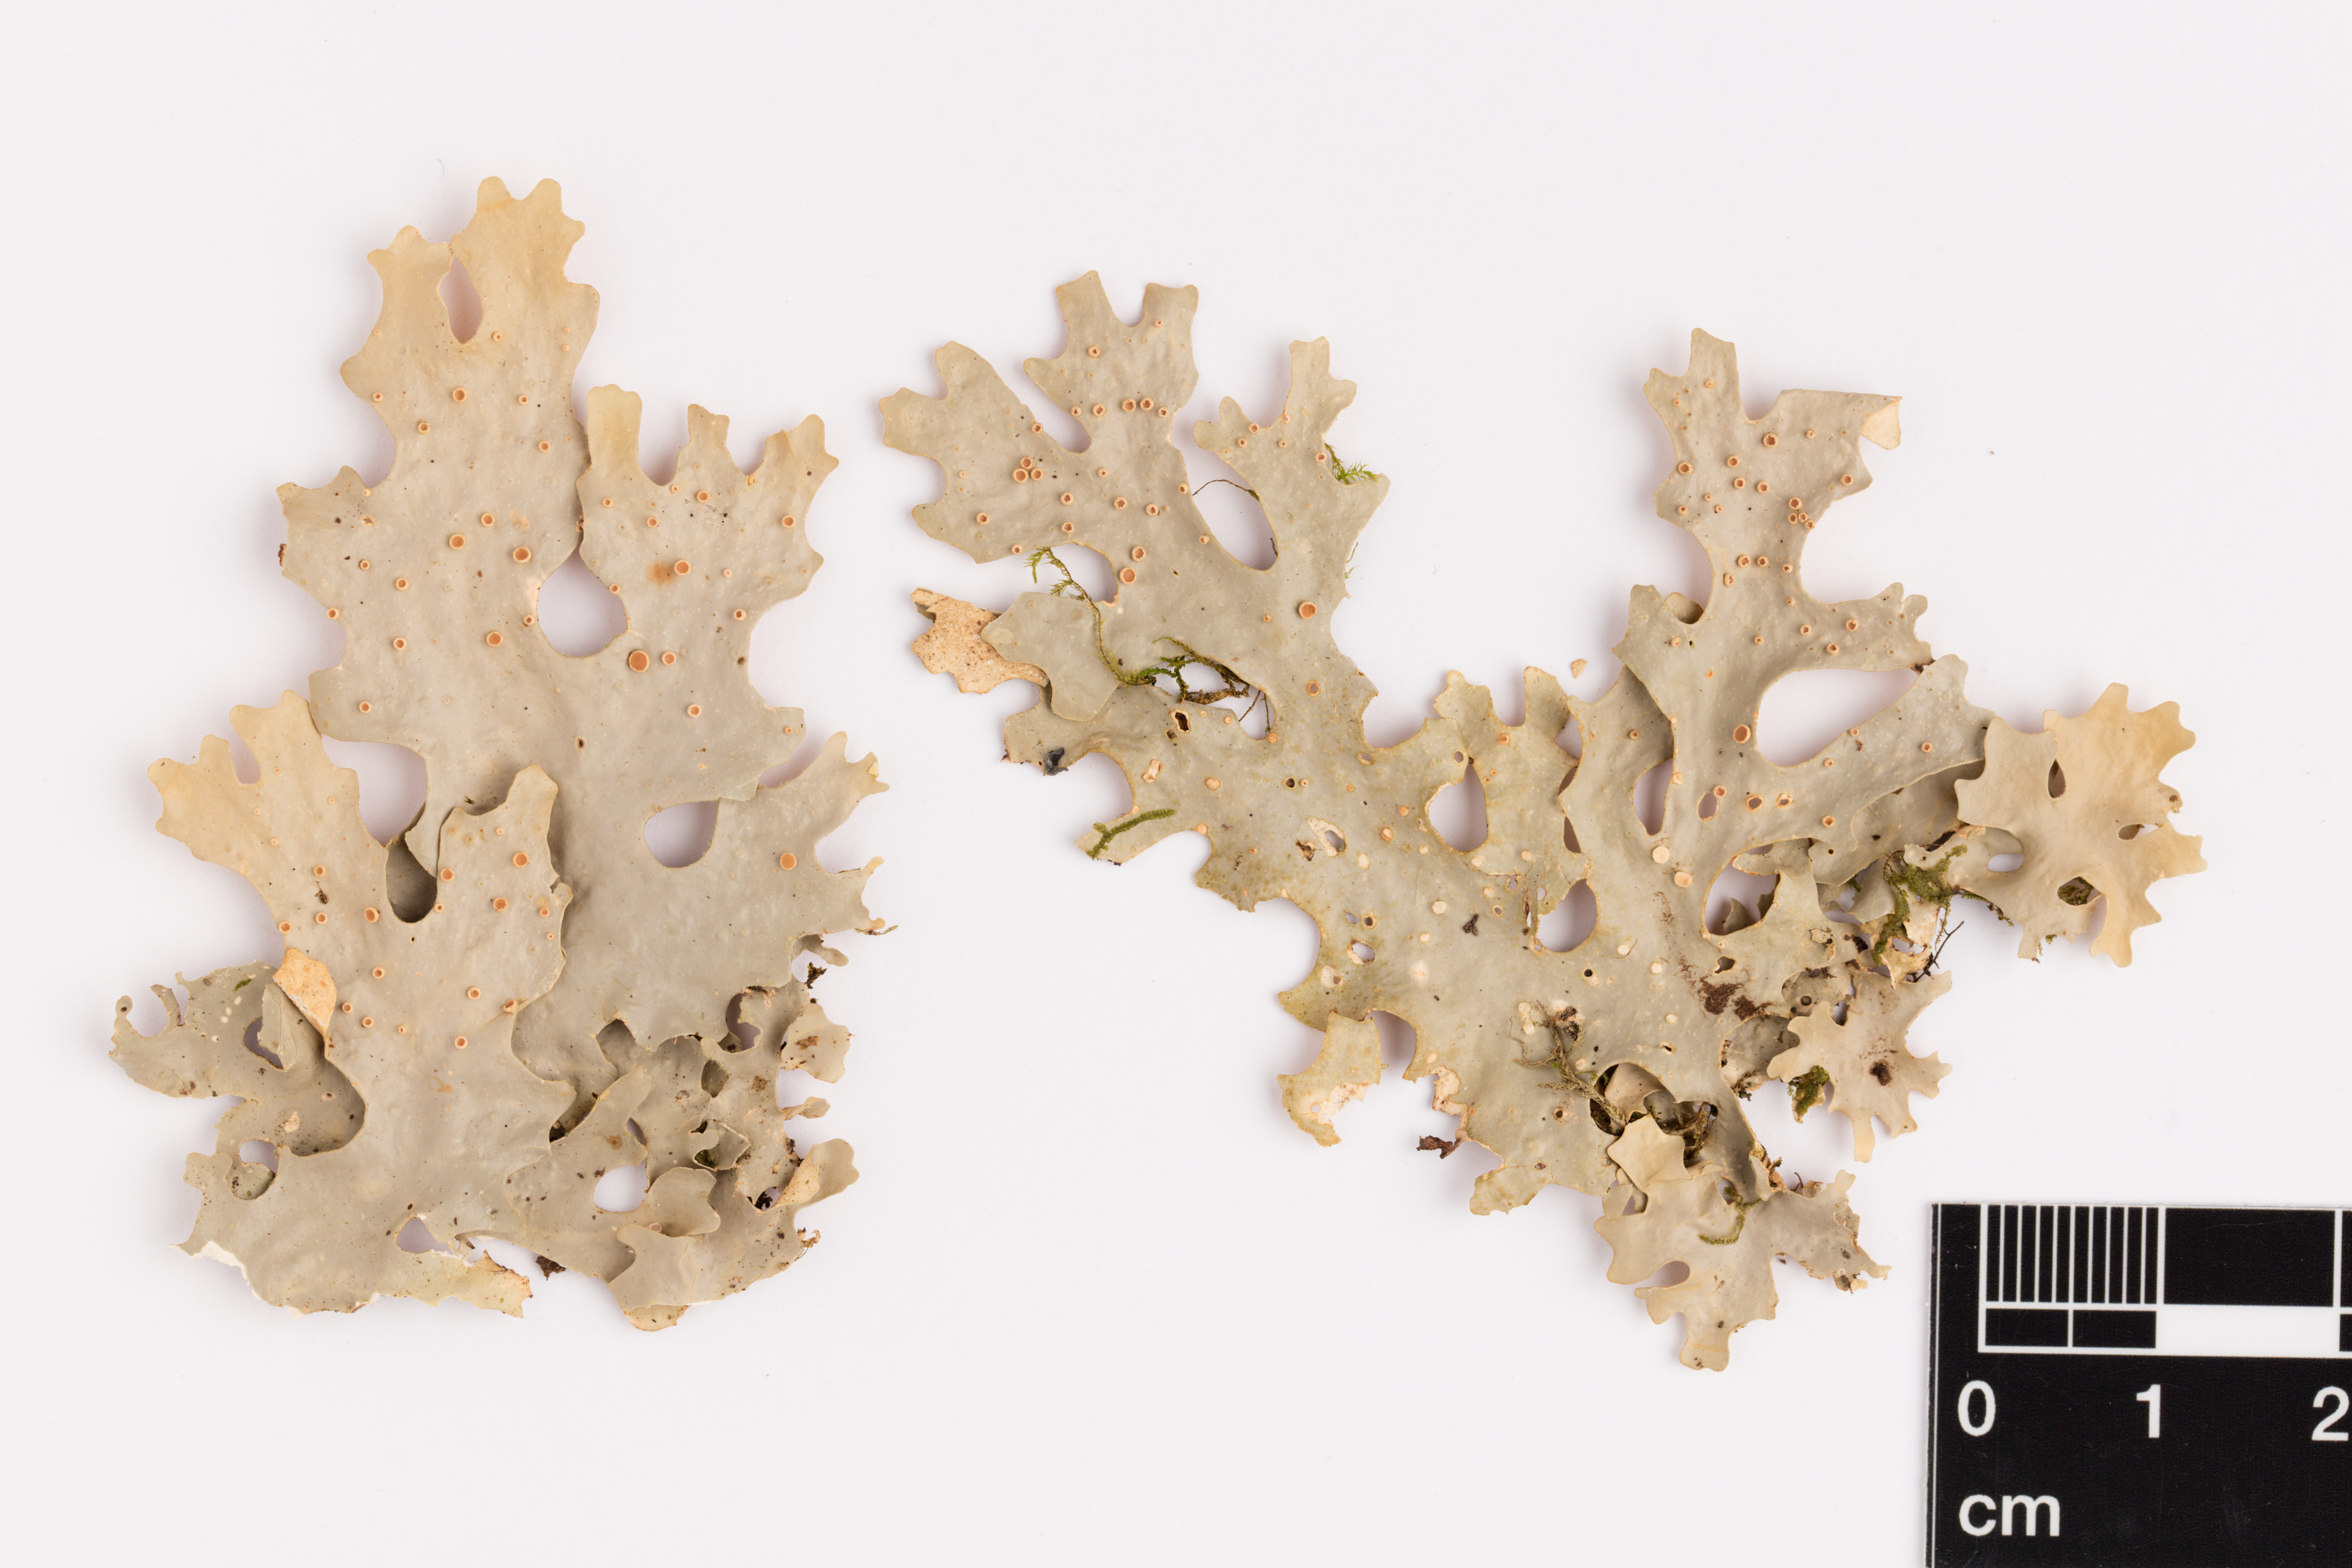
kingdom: Fungi
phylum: Ascomycota
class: Lecanoromycetes
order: Peltigerales
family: Lobariaceae
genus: Sticta
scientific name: Sticta
